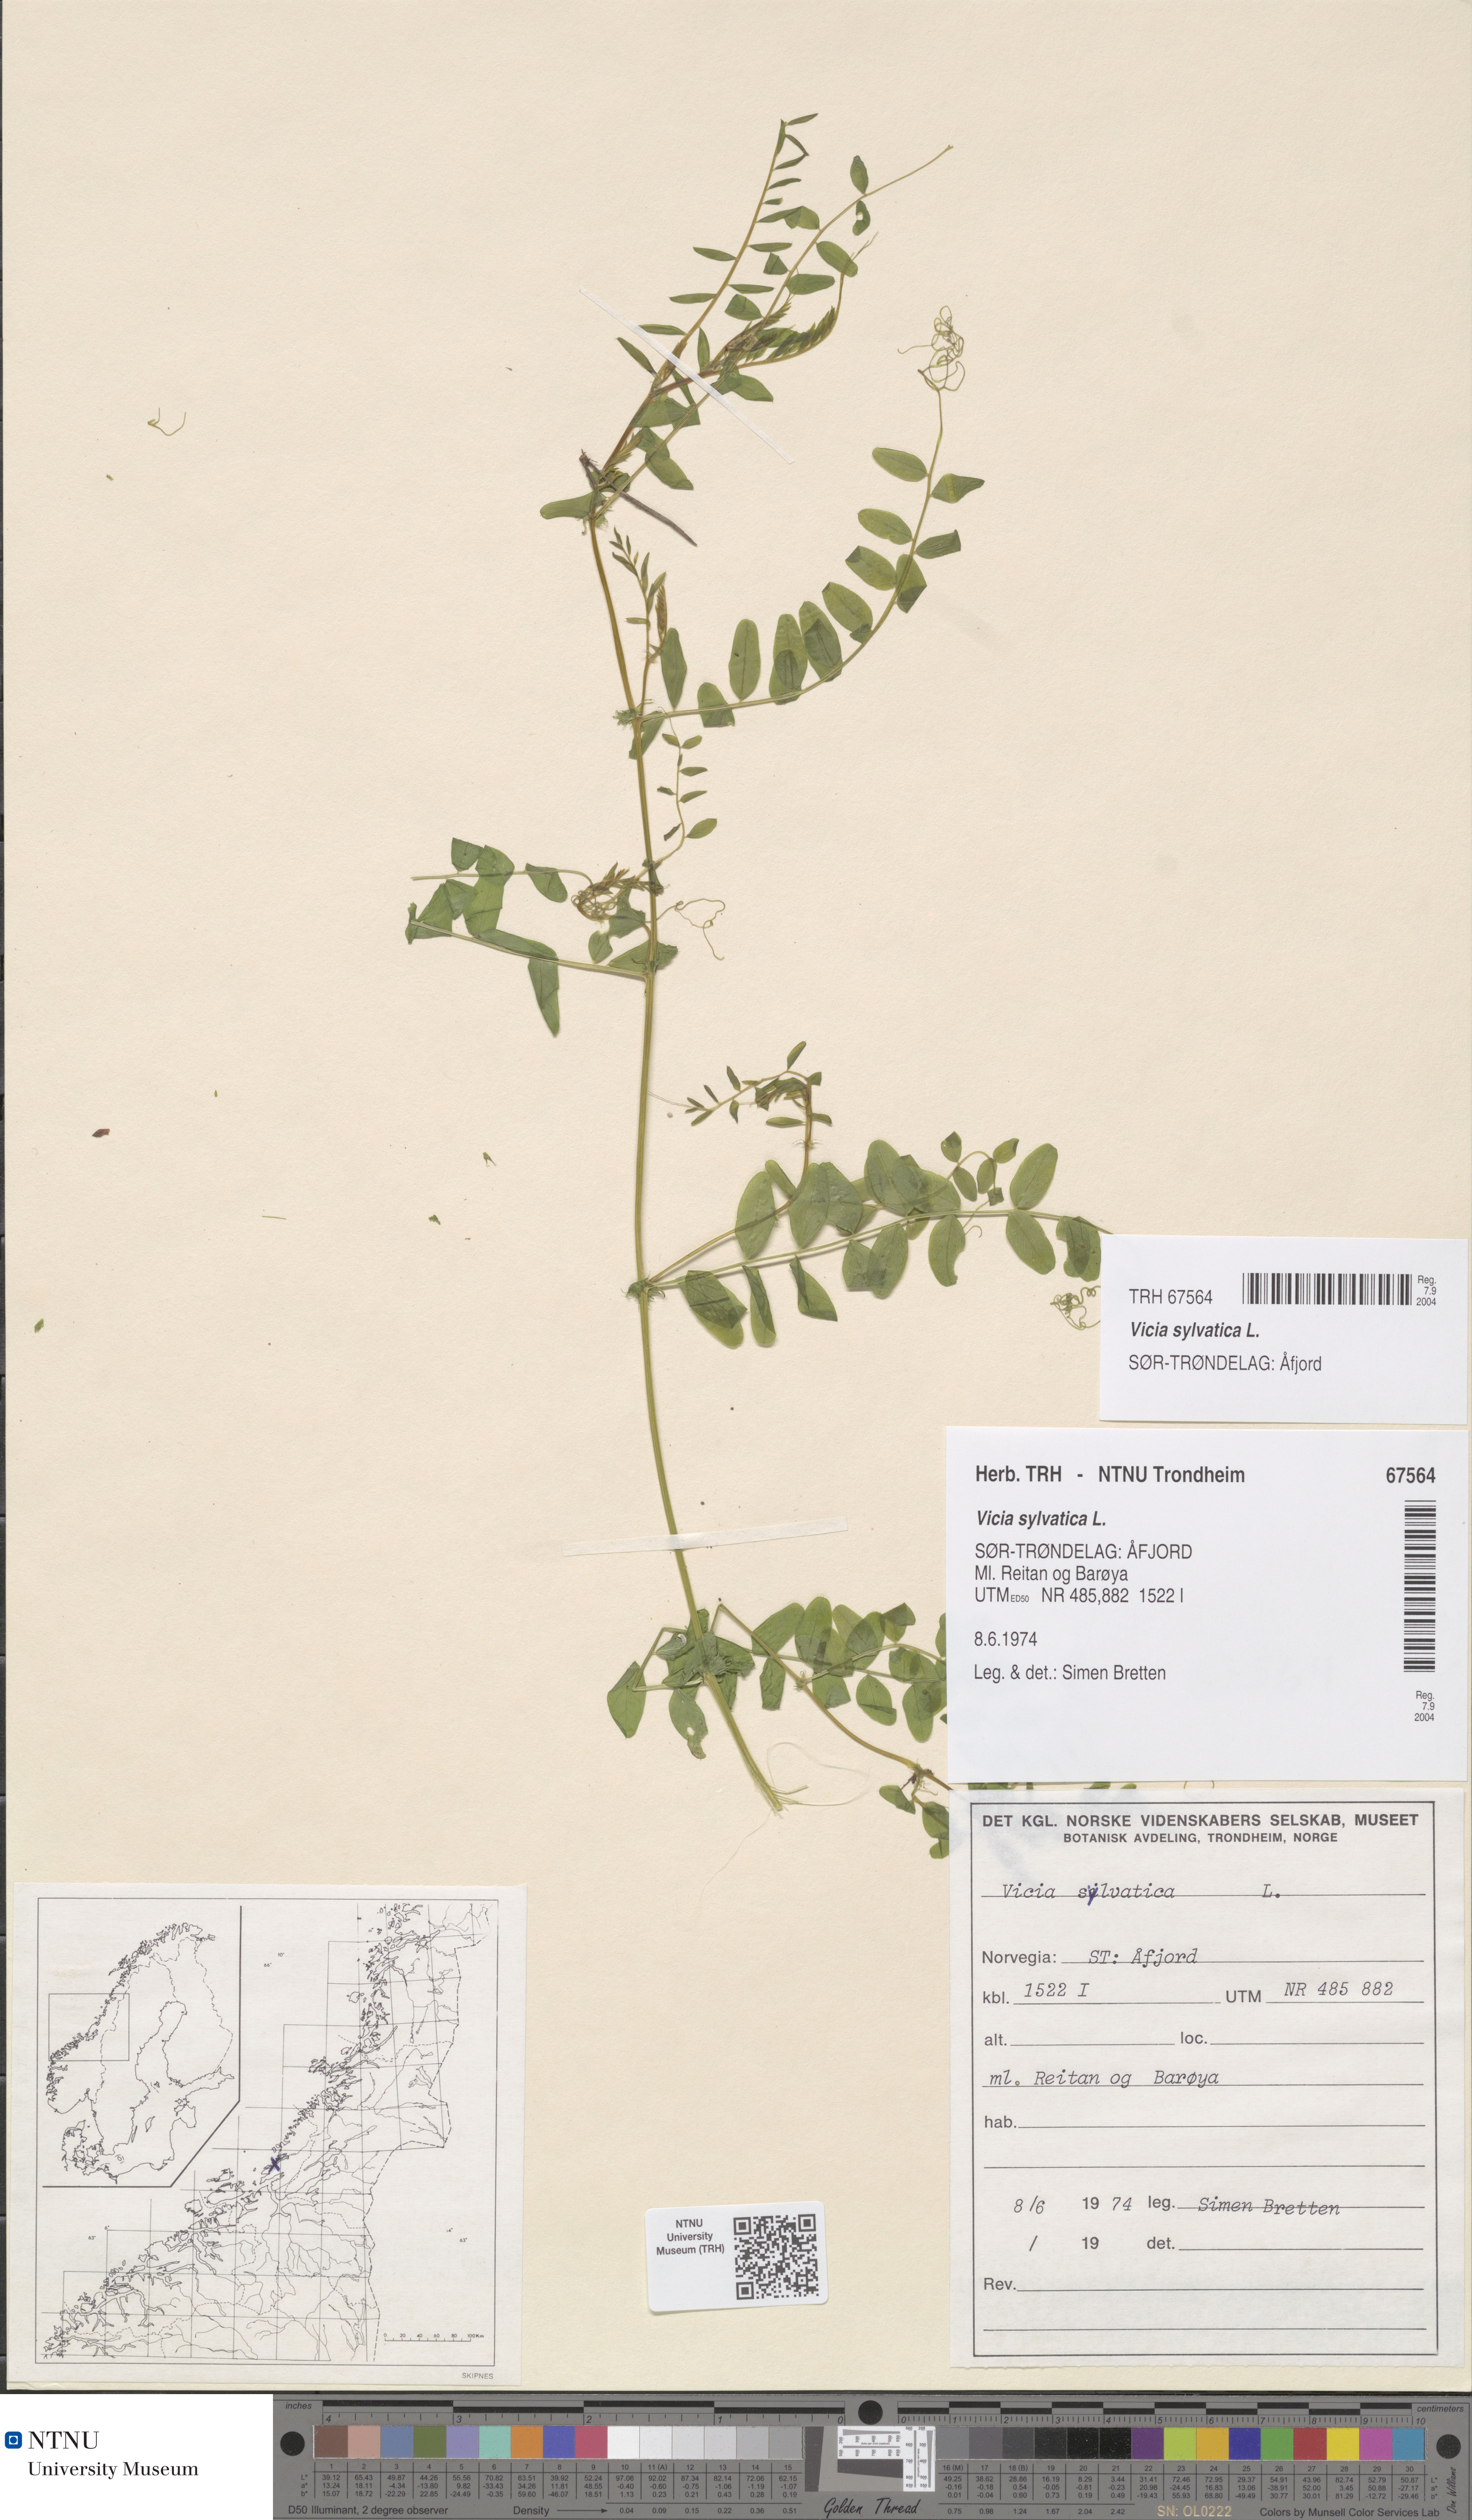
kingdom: Plantae
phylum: Tracheophyta
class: Magnoliopsida
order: Fabales
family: Fabaceae
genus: Vicia
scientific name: Vicia sylvatica
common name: Wood vetch
